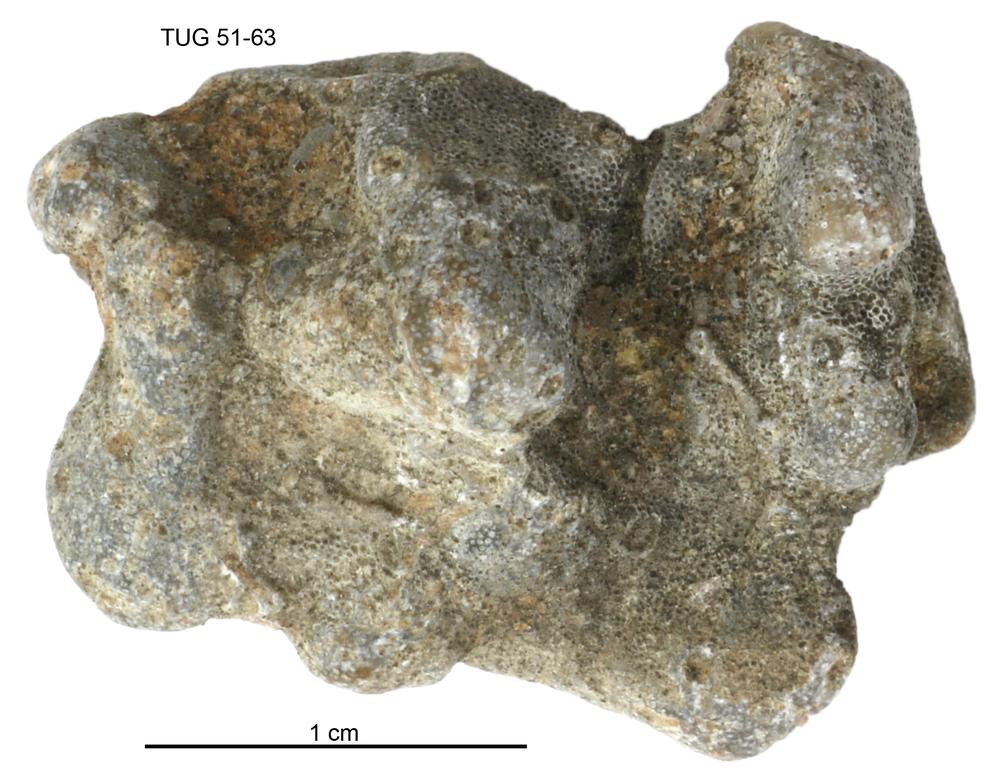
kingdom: Animalia
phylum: Bryozoa
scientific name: Bryozoa
